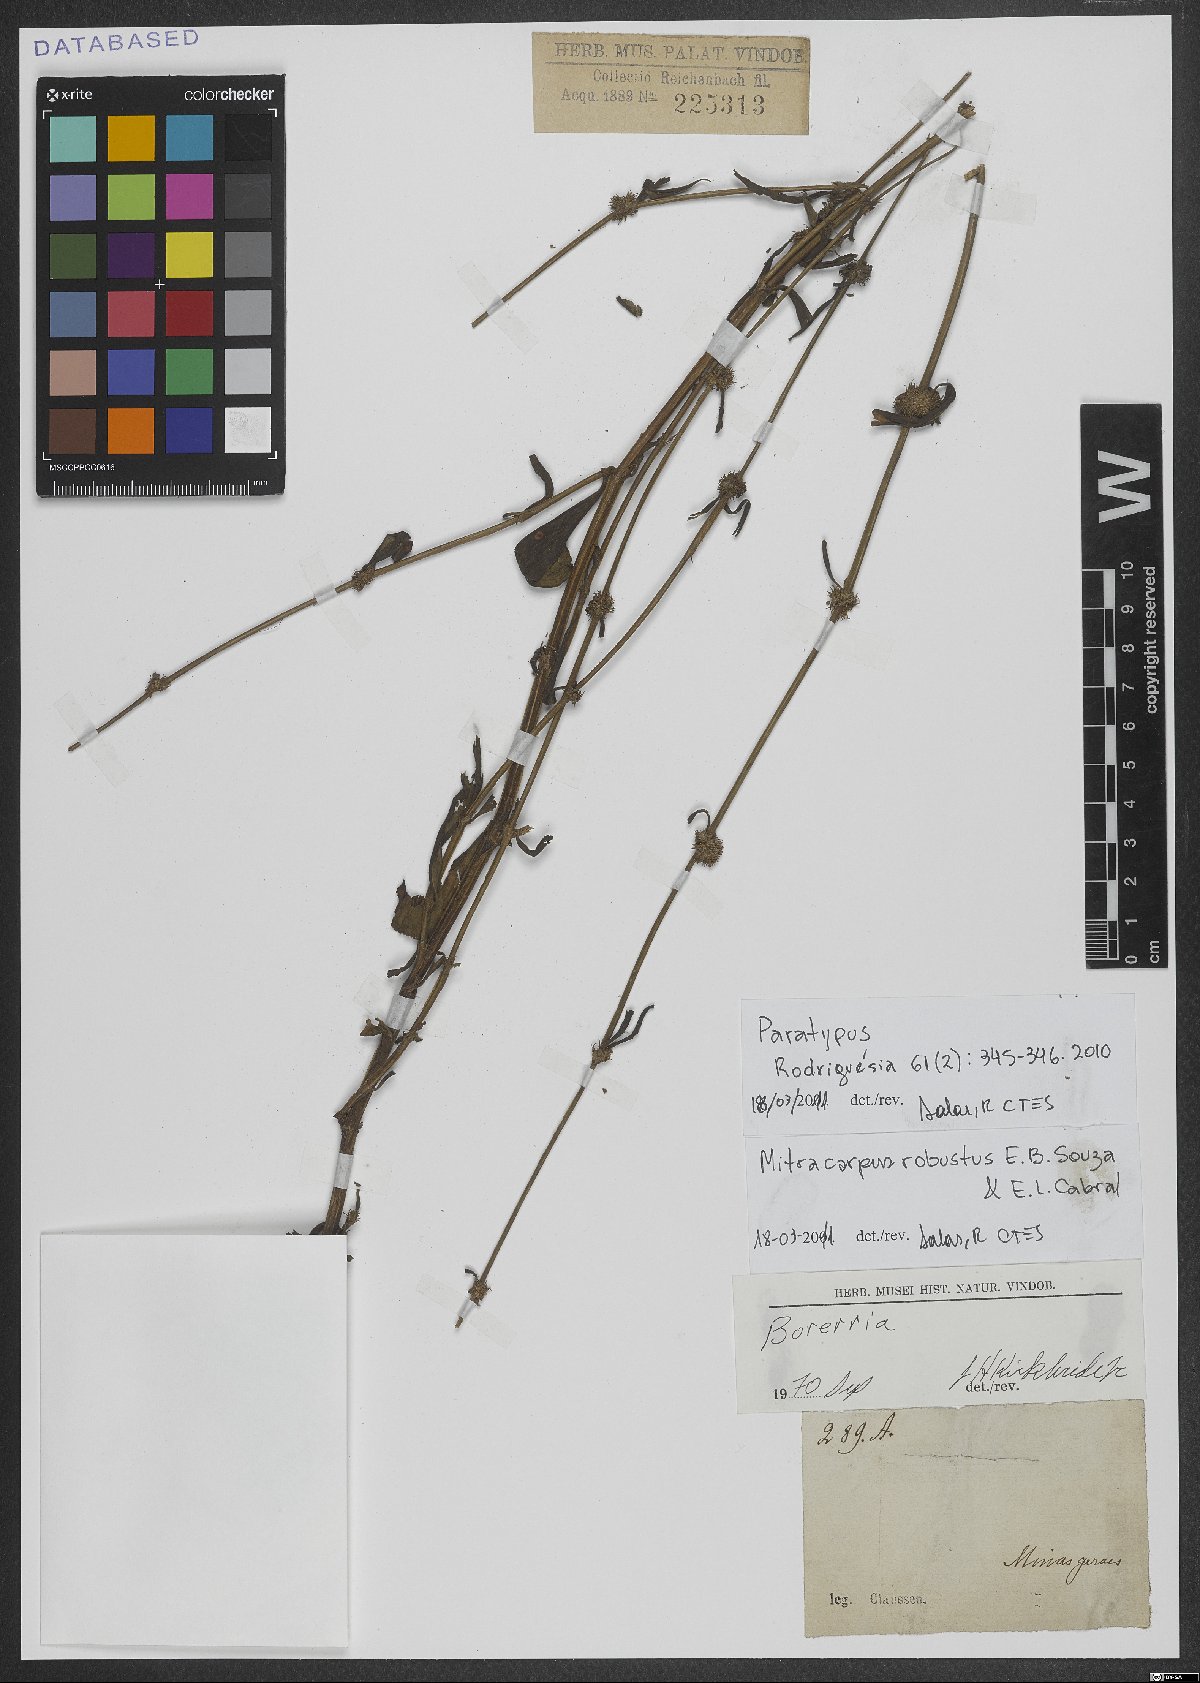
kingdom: Plantae
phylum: Tracheophyta
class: Magnoliopsida
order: Gentianales
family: Rubiaceae
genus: Mitracarpus
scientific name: Mitracarpus robustus
